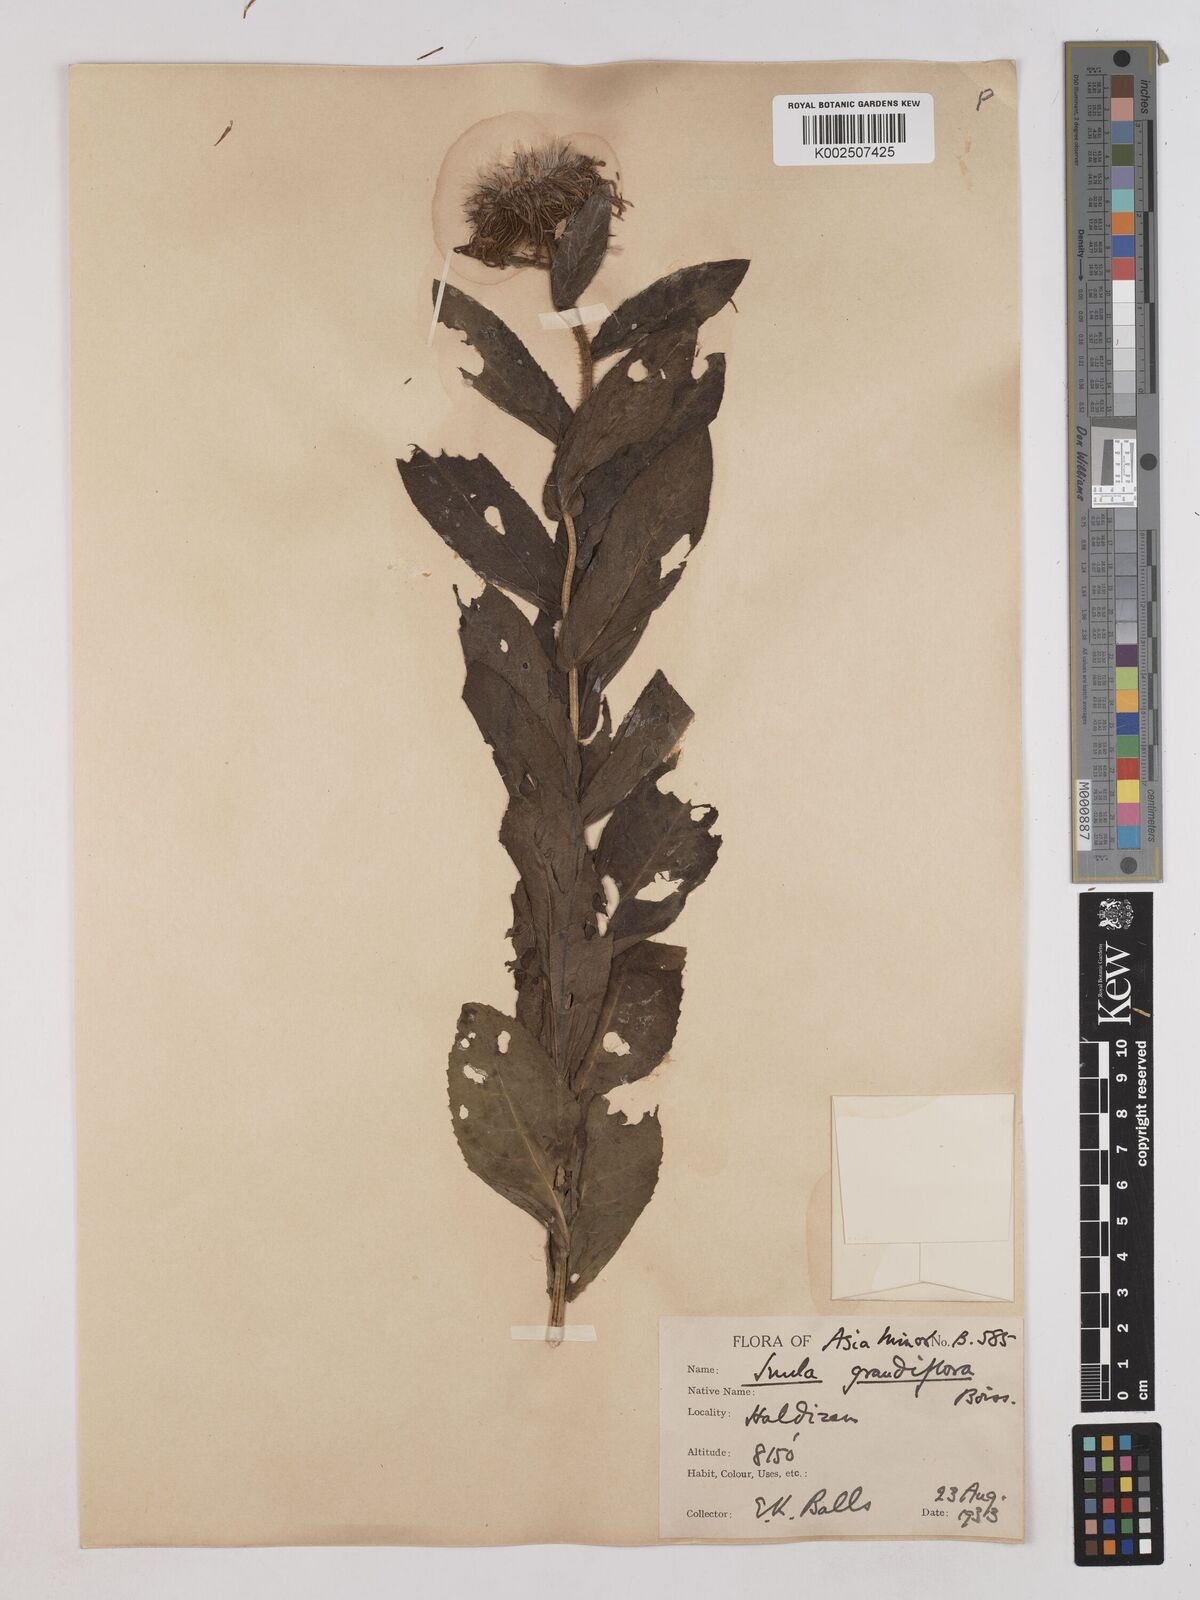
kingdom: Plantae
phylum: Tracheophyta
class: Magnoliopsida
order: Asterales
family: Asteraceae
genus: Pentanema
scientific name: Pentanema orientale
